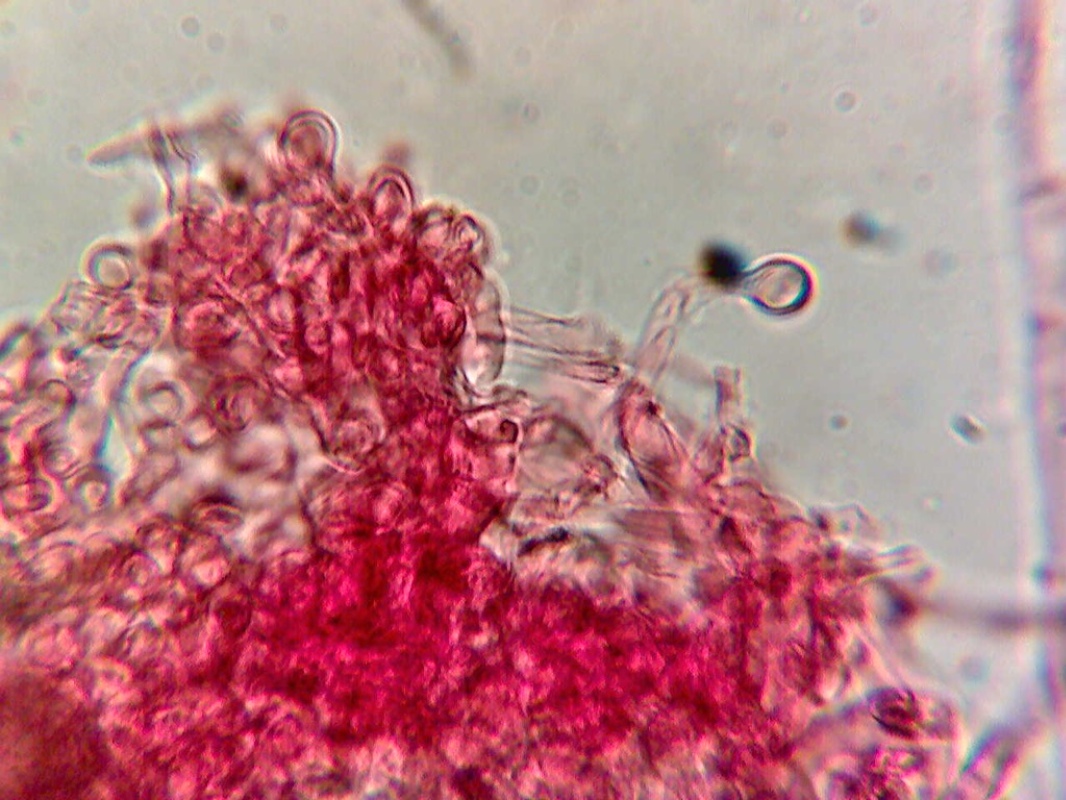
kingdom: Fungi
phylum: Basidiomycota
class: Agaricomycetes
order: Agaricales
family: Mycenaceae
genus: Atheniella
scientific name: Atheniella flavoalba
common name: gulhvid huesvamp
